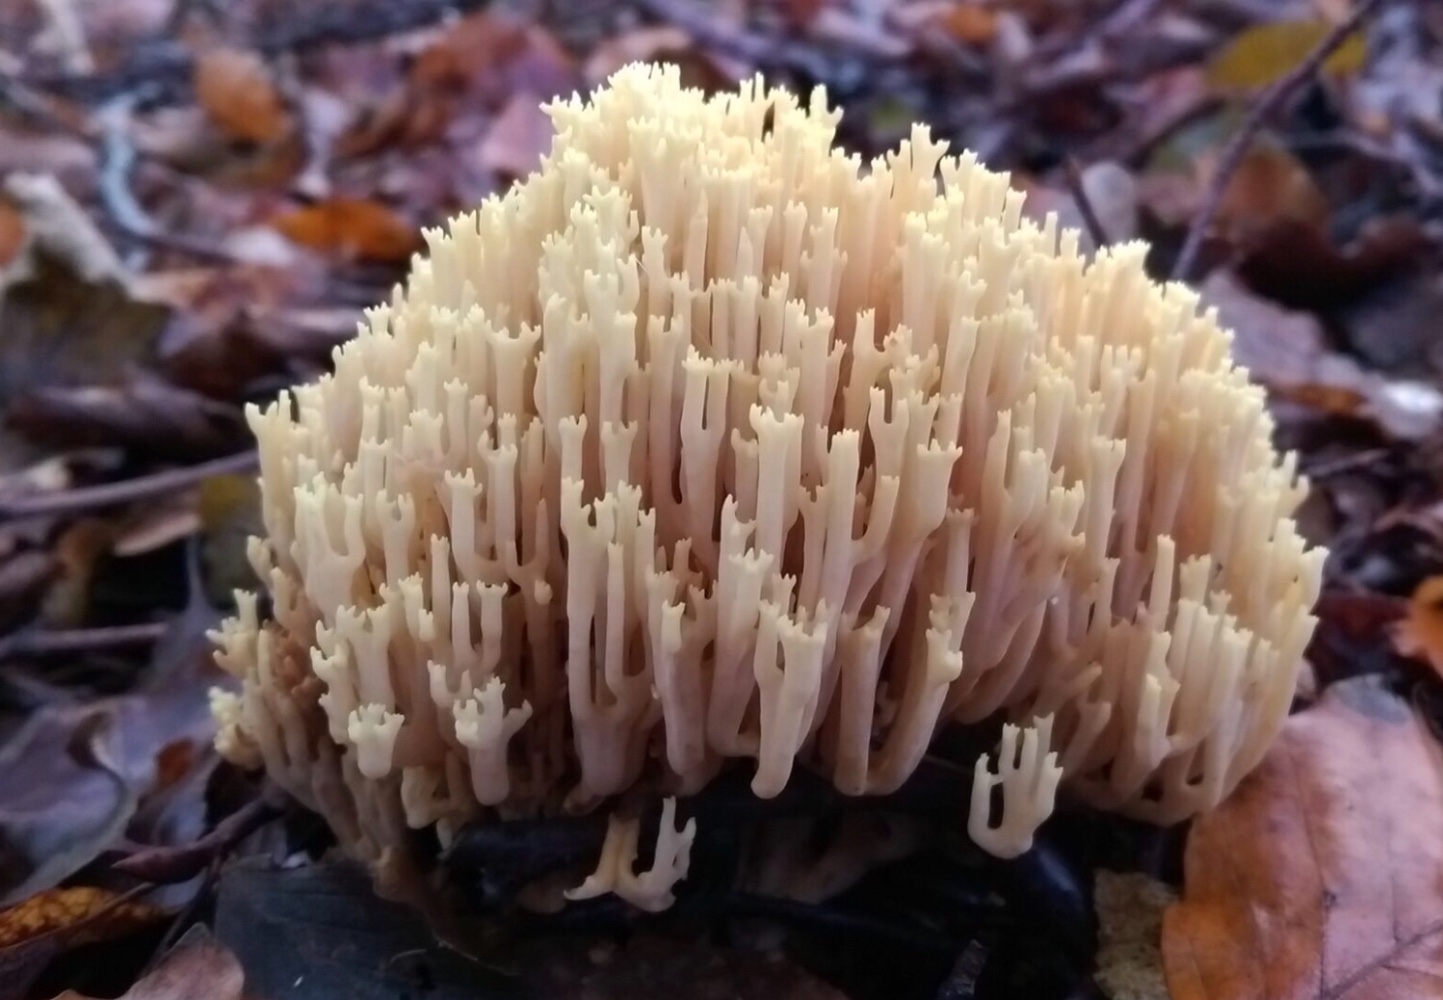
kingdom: Fungi
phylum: Basidiomycota
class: Agaricomycetes
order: Gomphales
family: Gomphaceae
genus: Ramaria
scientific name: Ramaria stricta
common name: rank koralsvamp
